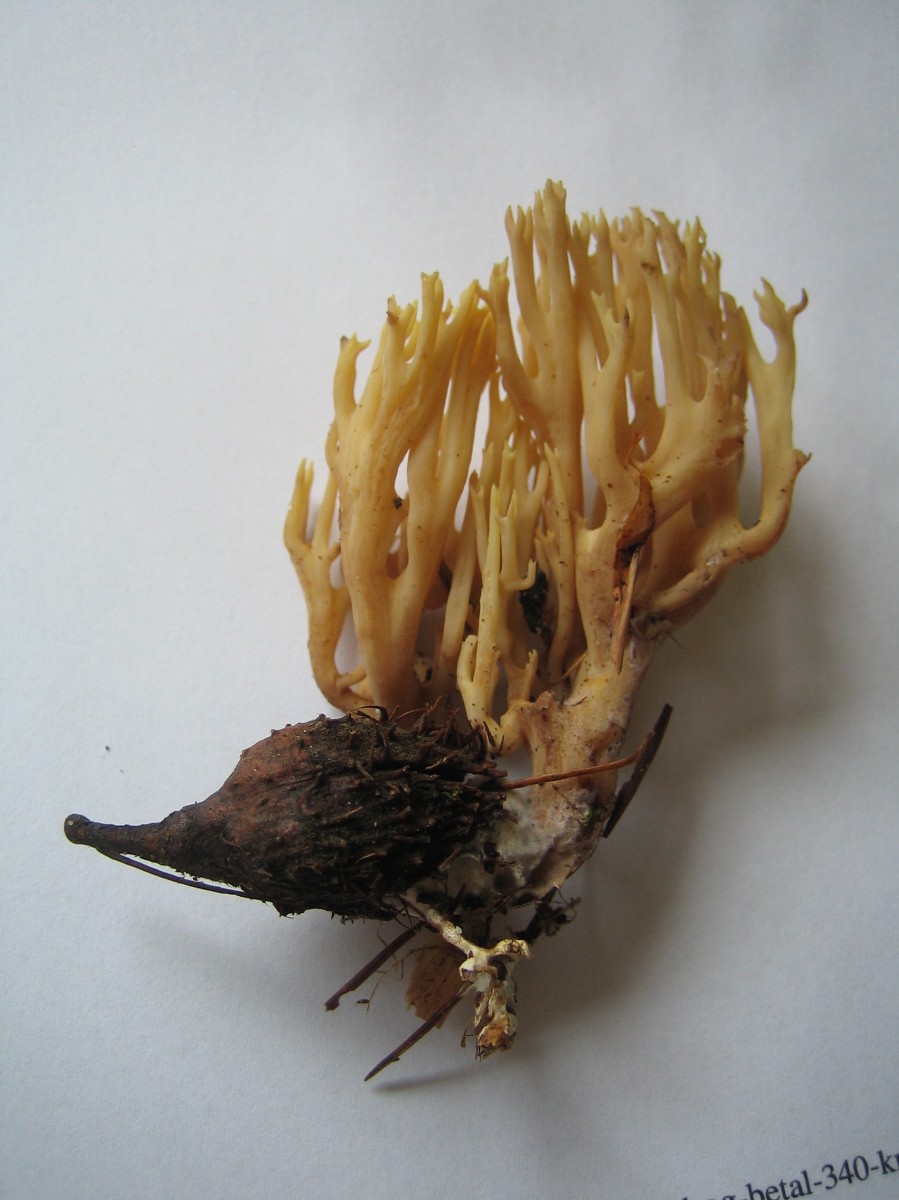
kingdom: Fungi
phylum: Basidiomycota
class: Agaricomycetes
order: Gomphales
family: Gomphaceae
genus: Ramaria
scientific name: Ramaria stricta
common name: rank koralsvamp
